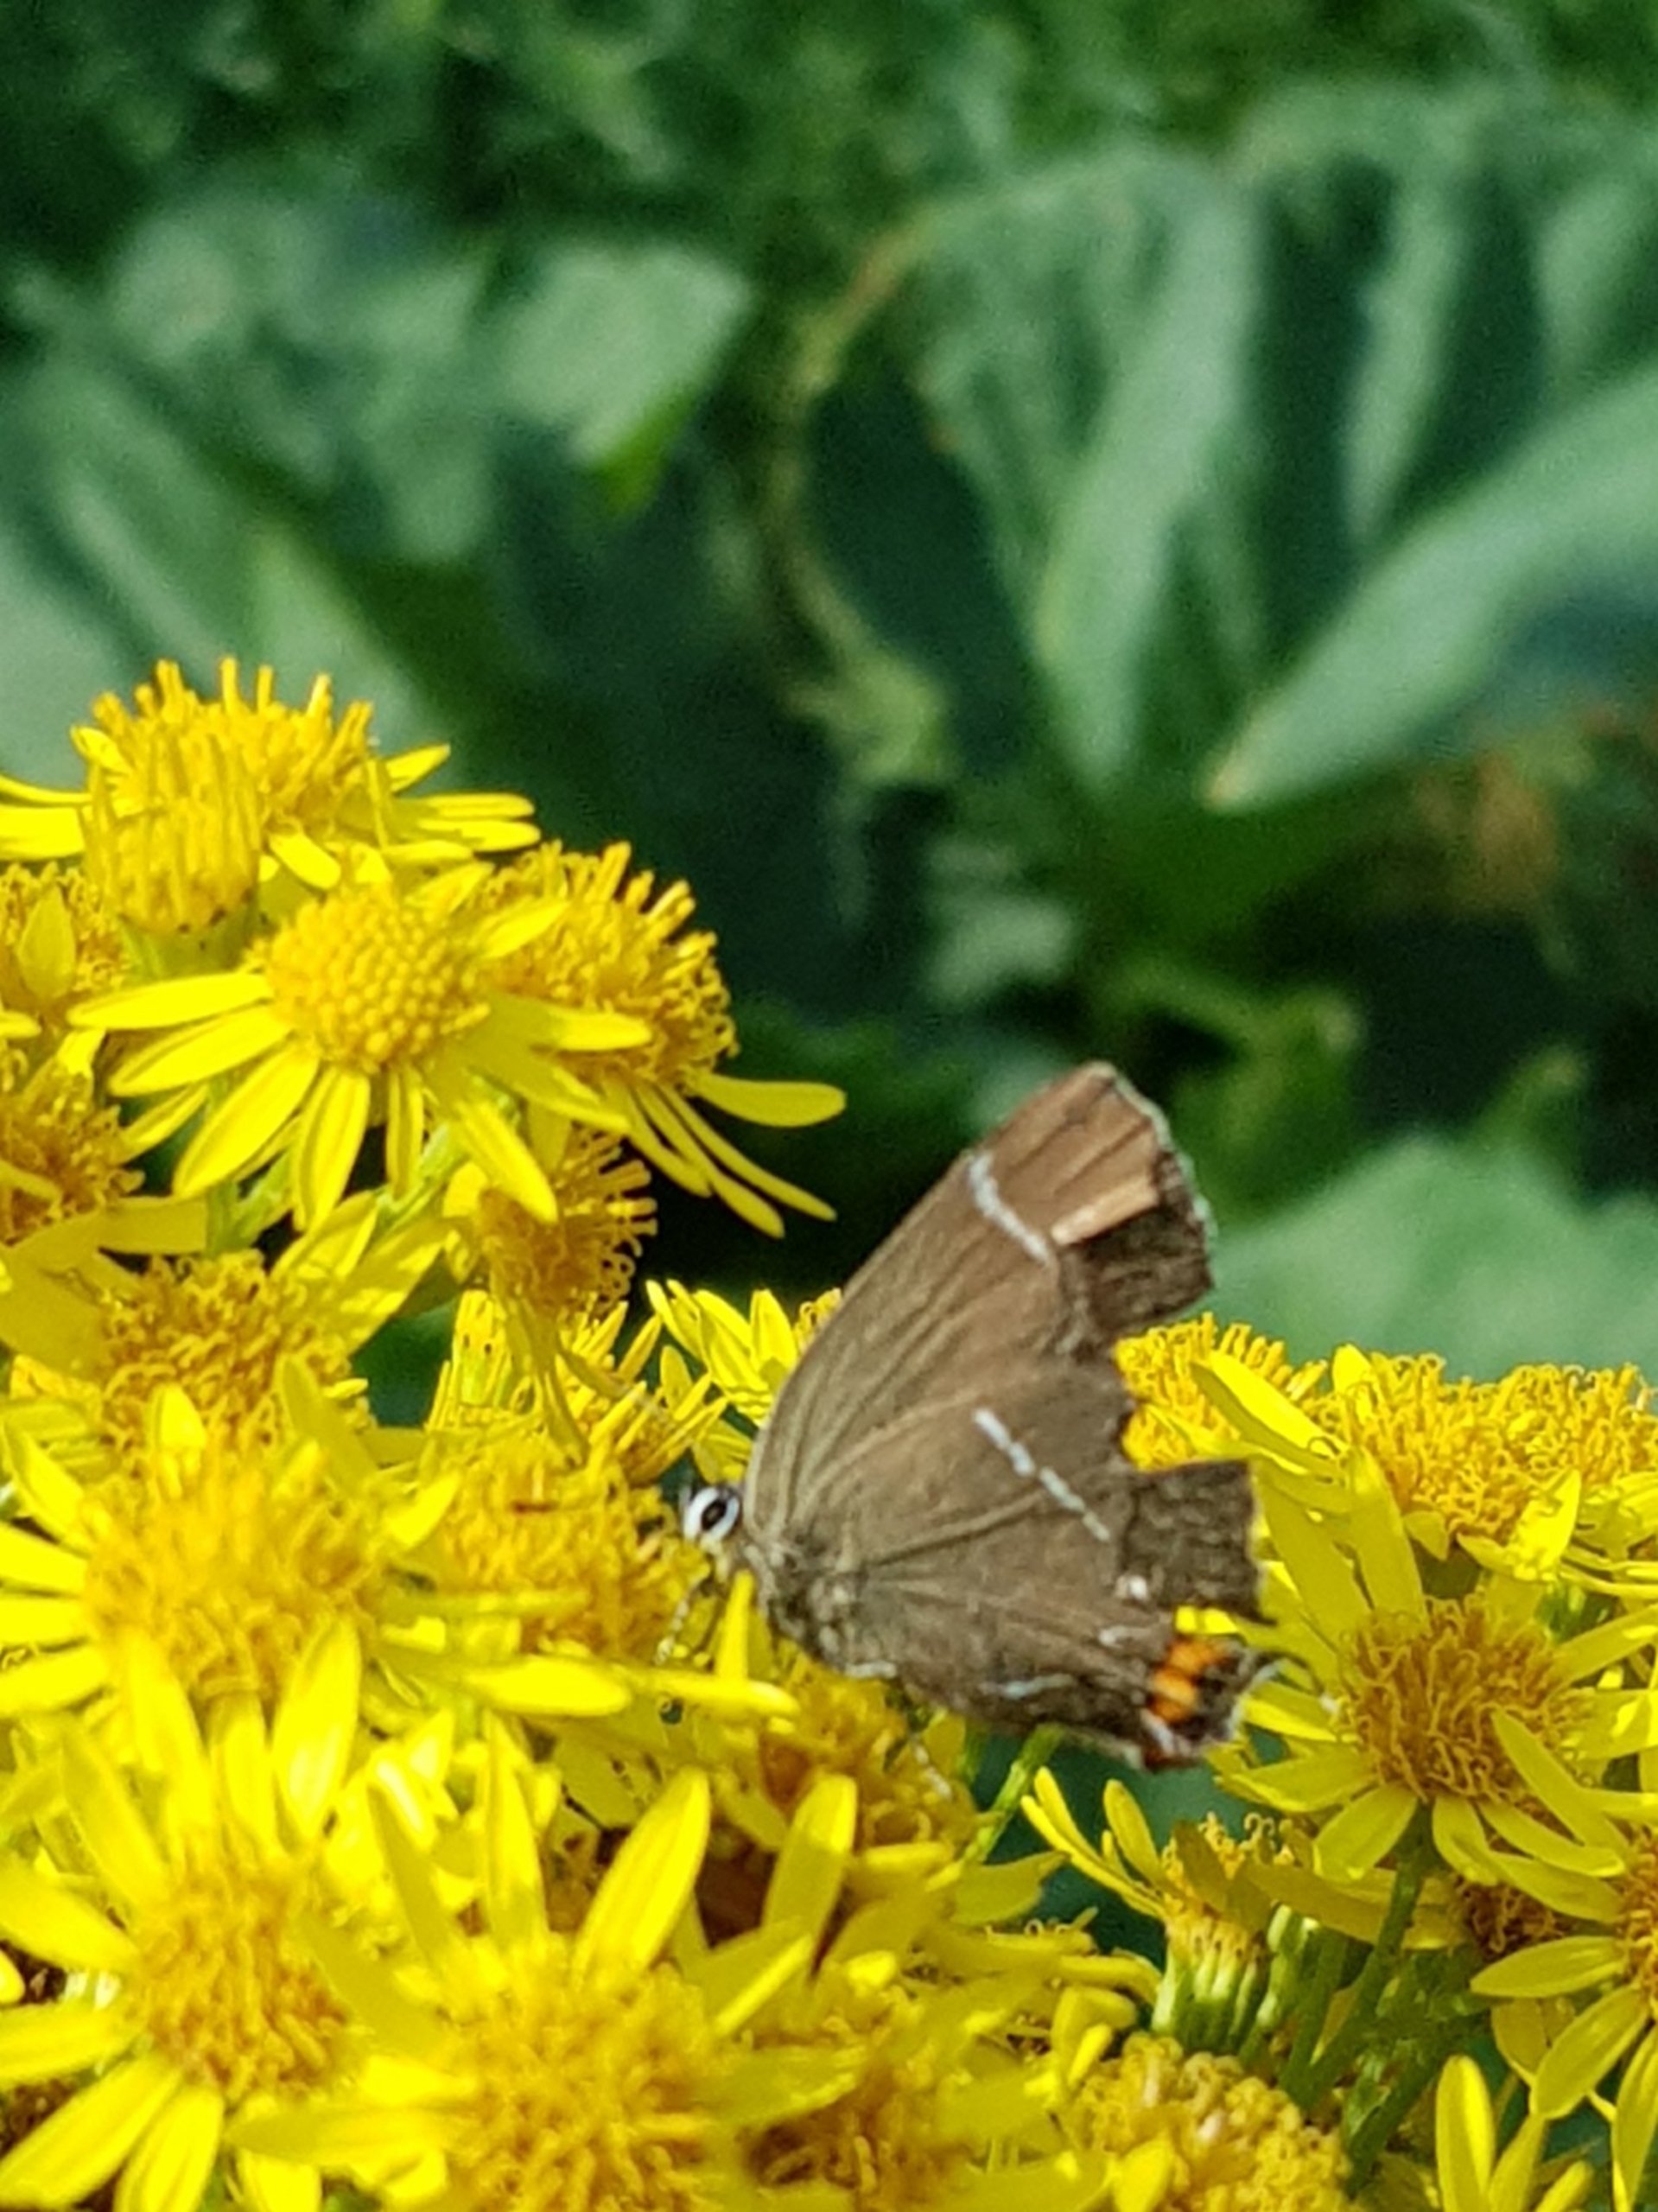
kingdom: Animalia
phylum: Arthropoda
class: Insecta
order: Lepidoptera
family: Lycaenidae
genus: Satyrium
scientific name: Satyrium w-album
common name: Det hvide W
